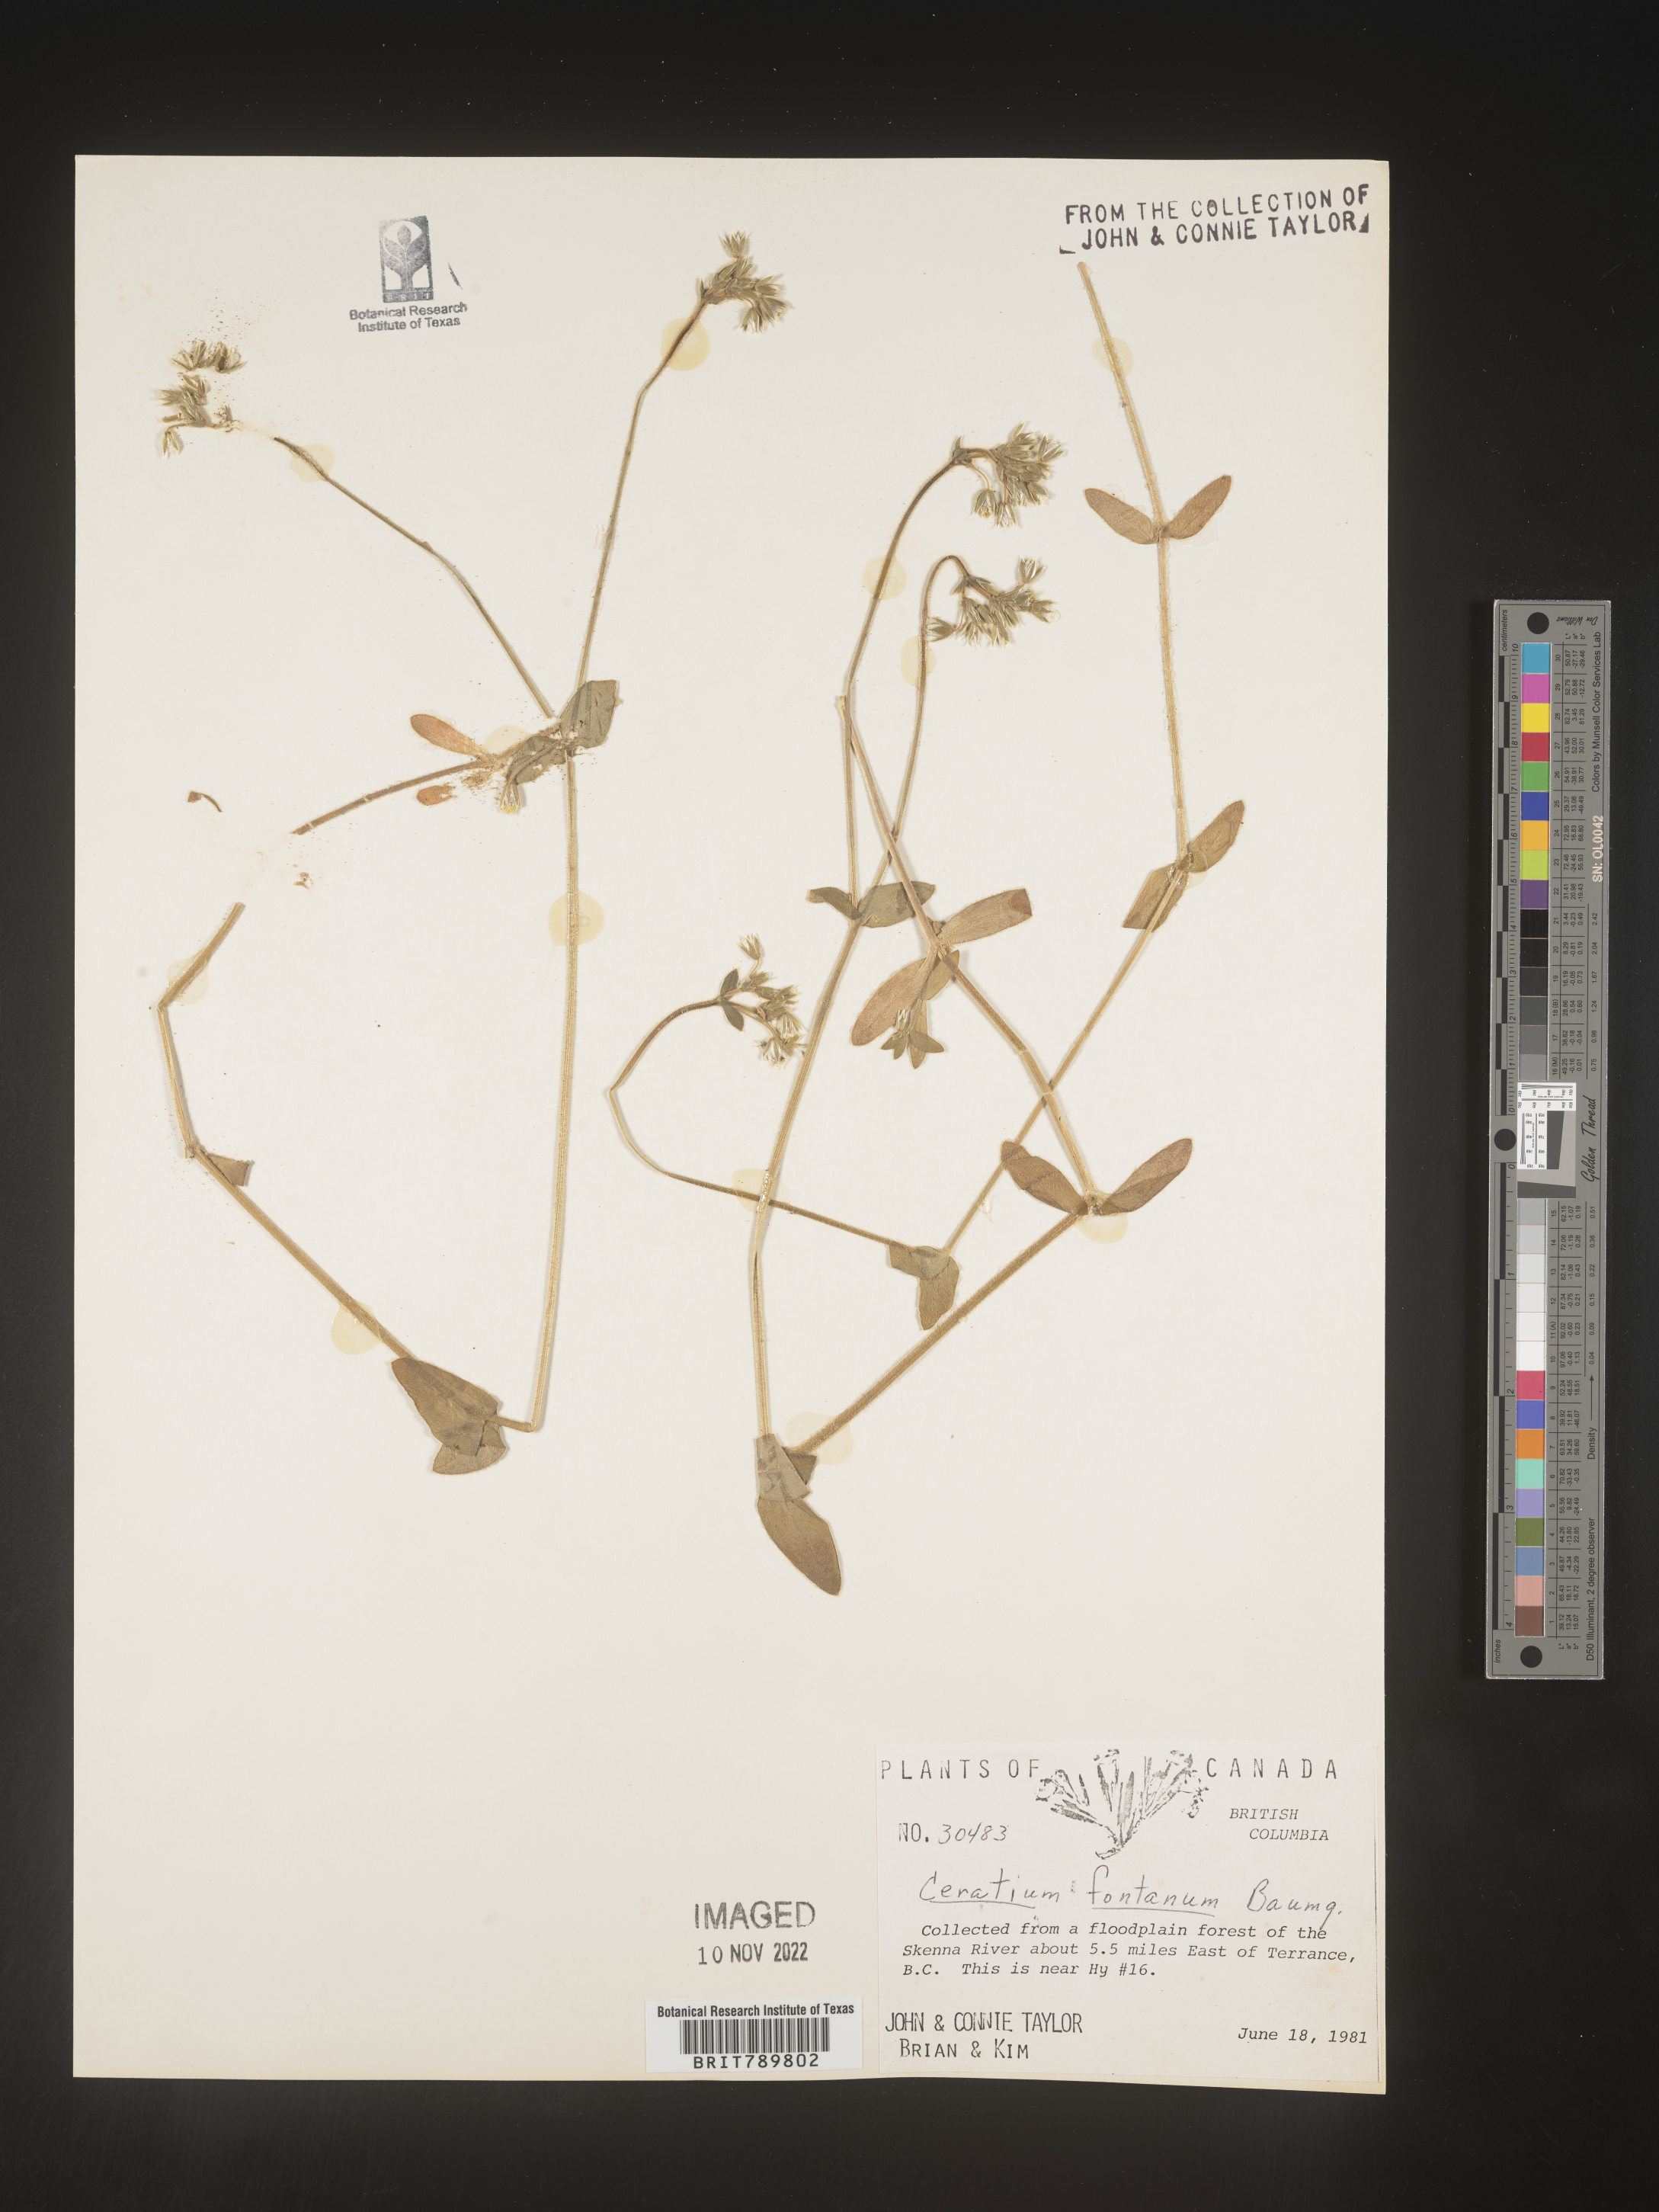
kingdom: Plantae
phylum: Tracheophyta
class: Magnoliopsida
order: Caryophyllales
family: Caryophyllaceae
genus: Cerastium
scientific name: Cerastium fontanum
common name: Common mouse-ear
